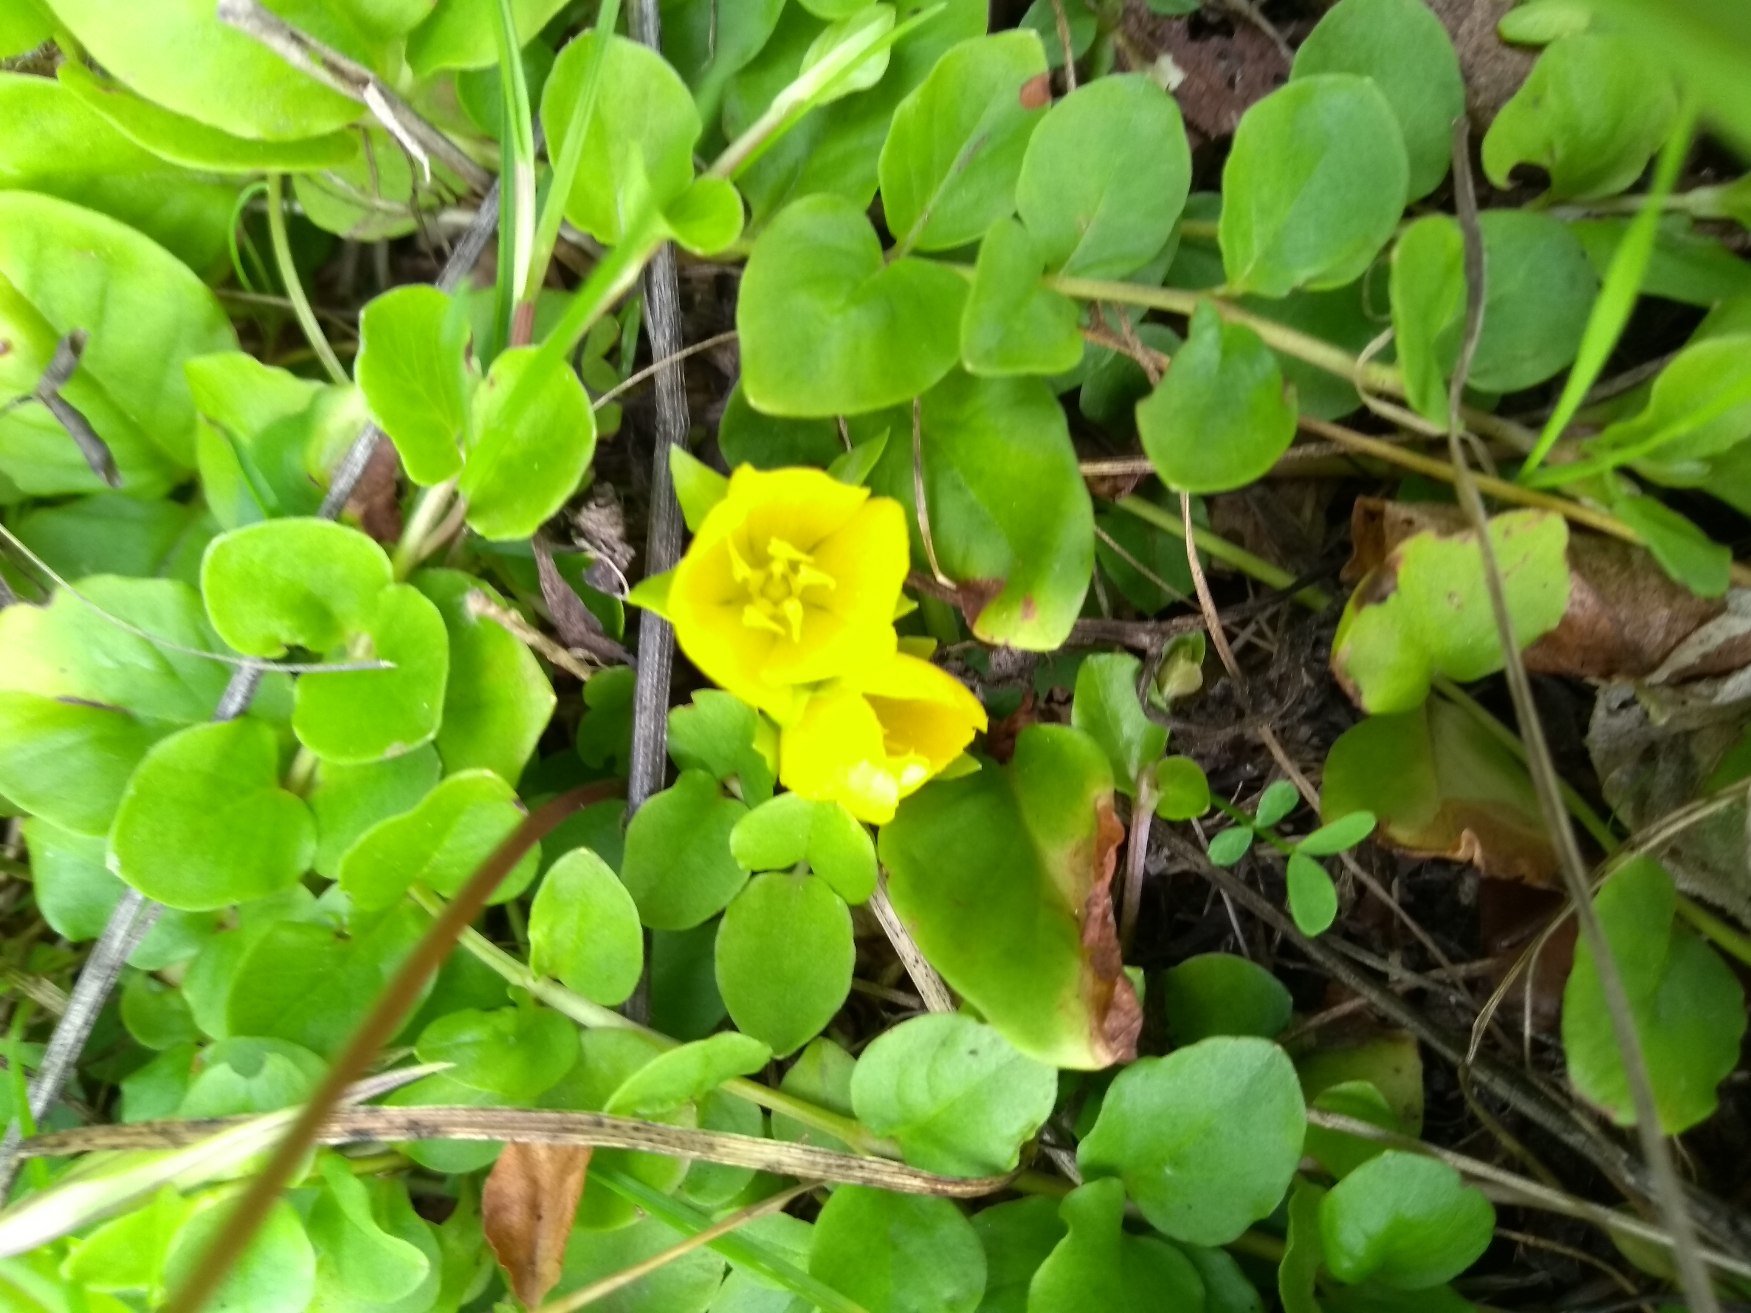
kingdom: Plantae
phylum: Tracheophyta
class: Magnoliopsida
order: Ericales
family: Primulaceae
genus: Lysimachia
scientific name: Lysimachia nummularia
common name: Pengebladet fredløs
